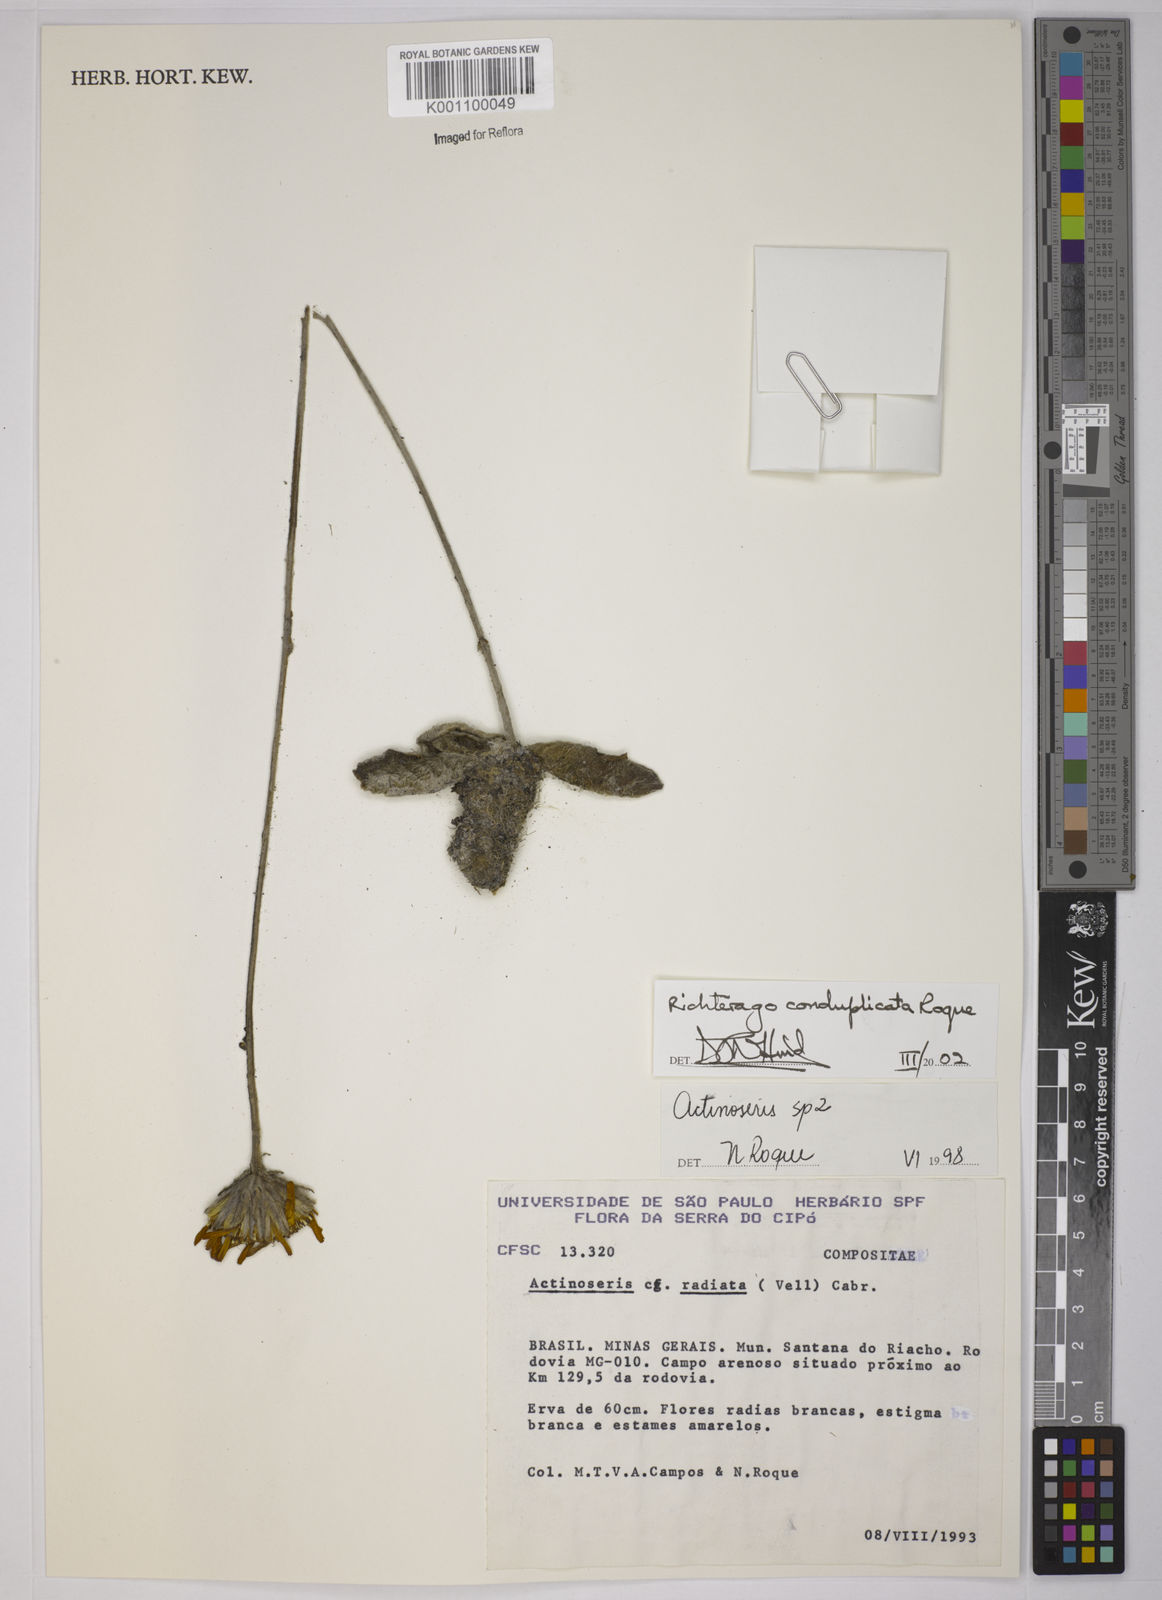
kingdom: Plantae
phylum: Tracheophyta
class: Magnoliopsida
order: Asterales
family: Asteraceae
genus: Richterago
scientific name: Richterago conduplicata
